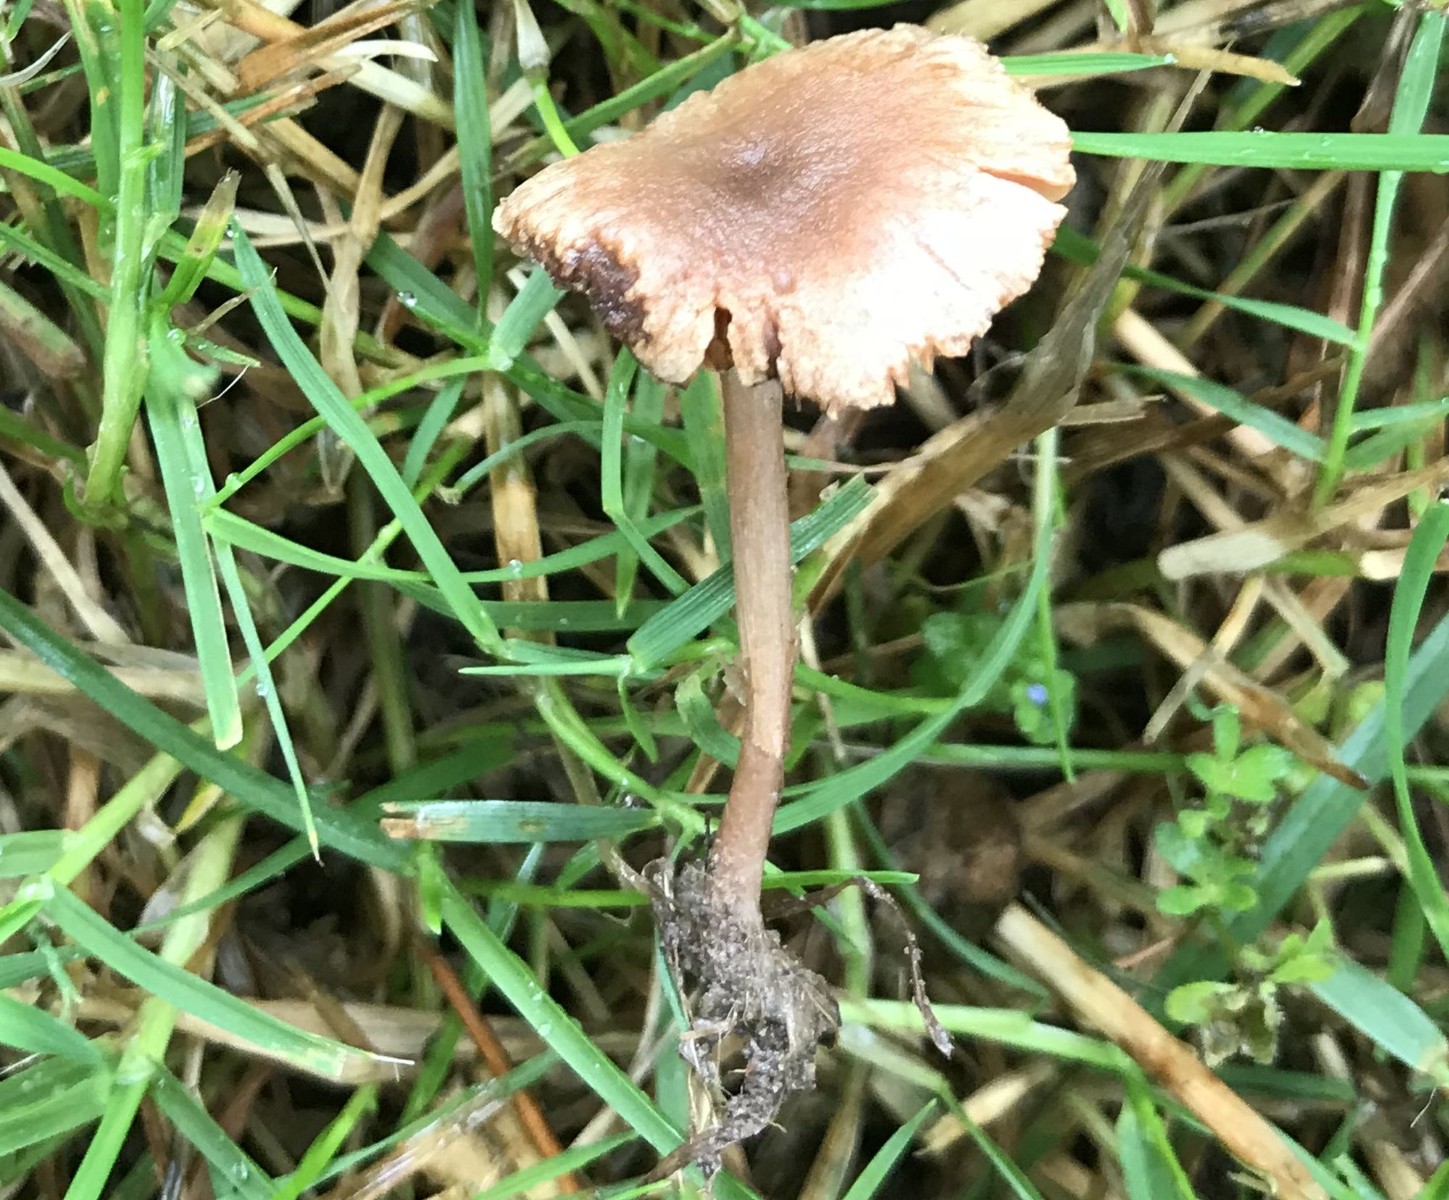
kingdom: Fungi
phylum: Basidiomycota
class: Agaricomycetes
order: Agaricales
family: Tubariaceae
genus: Tubaria
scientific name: Tubaria furfuracea
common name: kliddet fnughat
